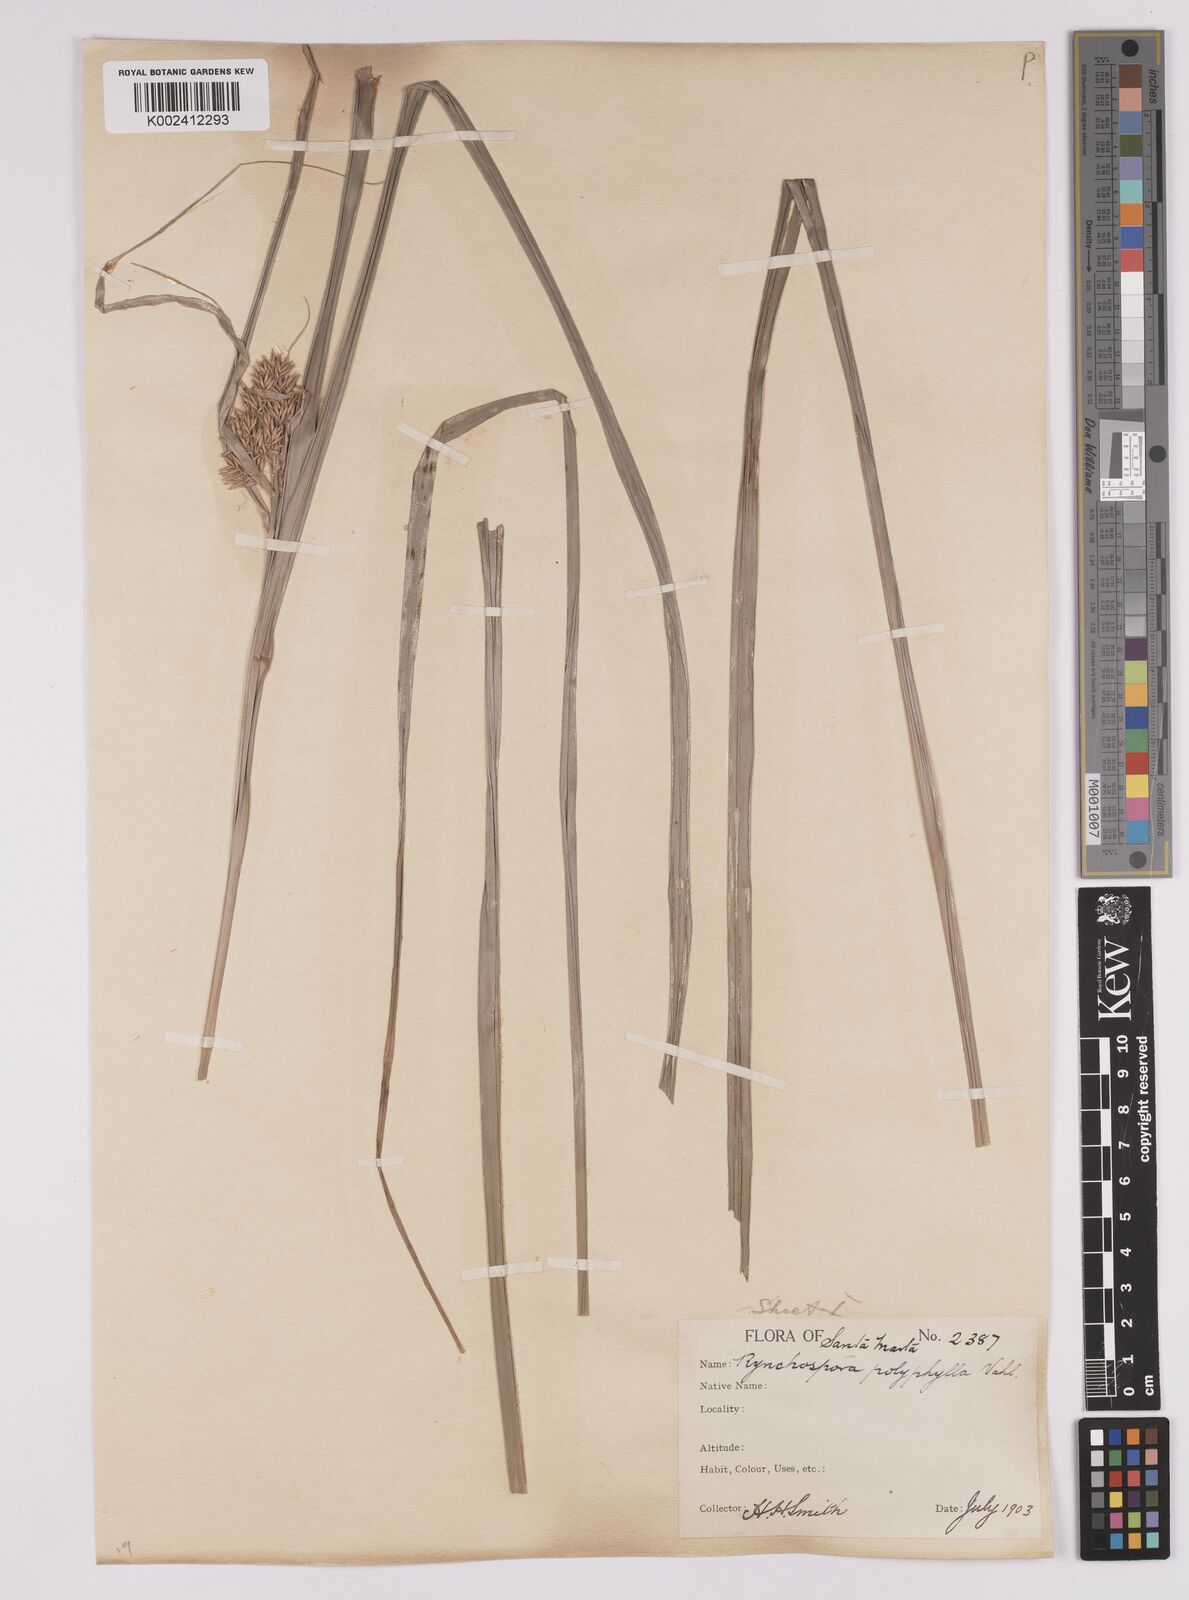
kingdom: Plantae
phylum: Tracheophyta
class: Liliopsida
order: Poales
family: Cyperaceae
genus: Rhynchospora
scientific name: Rhynchospora polyphylla
